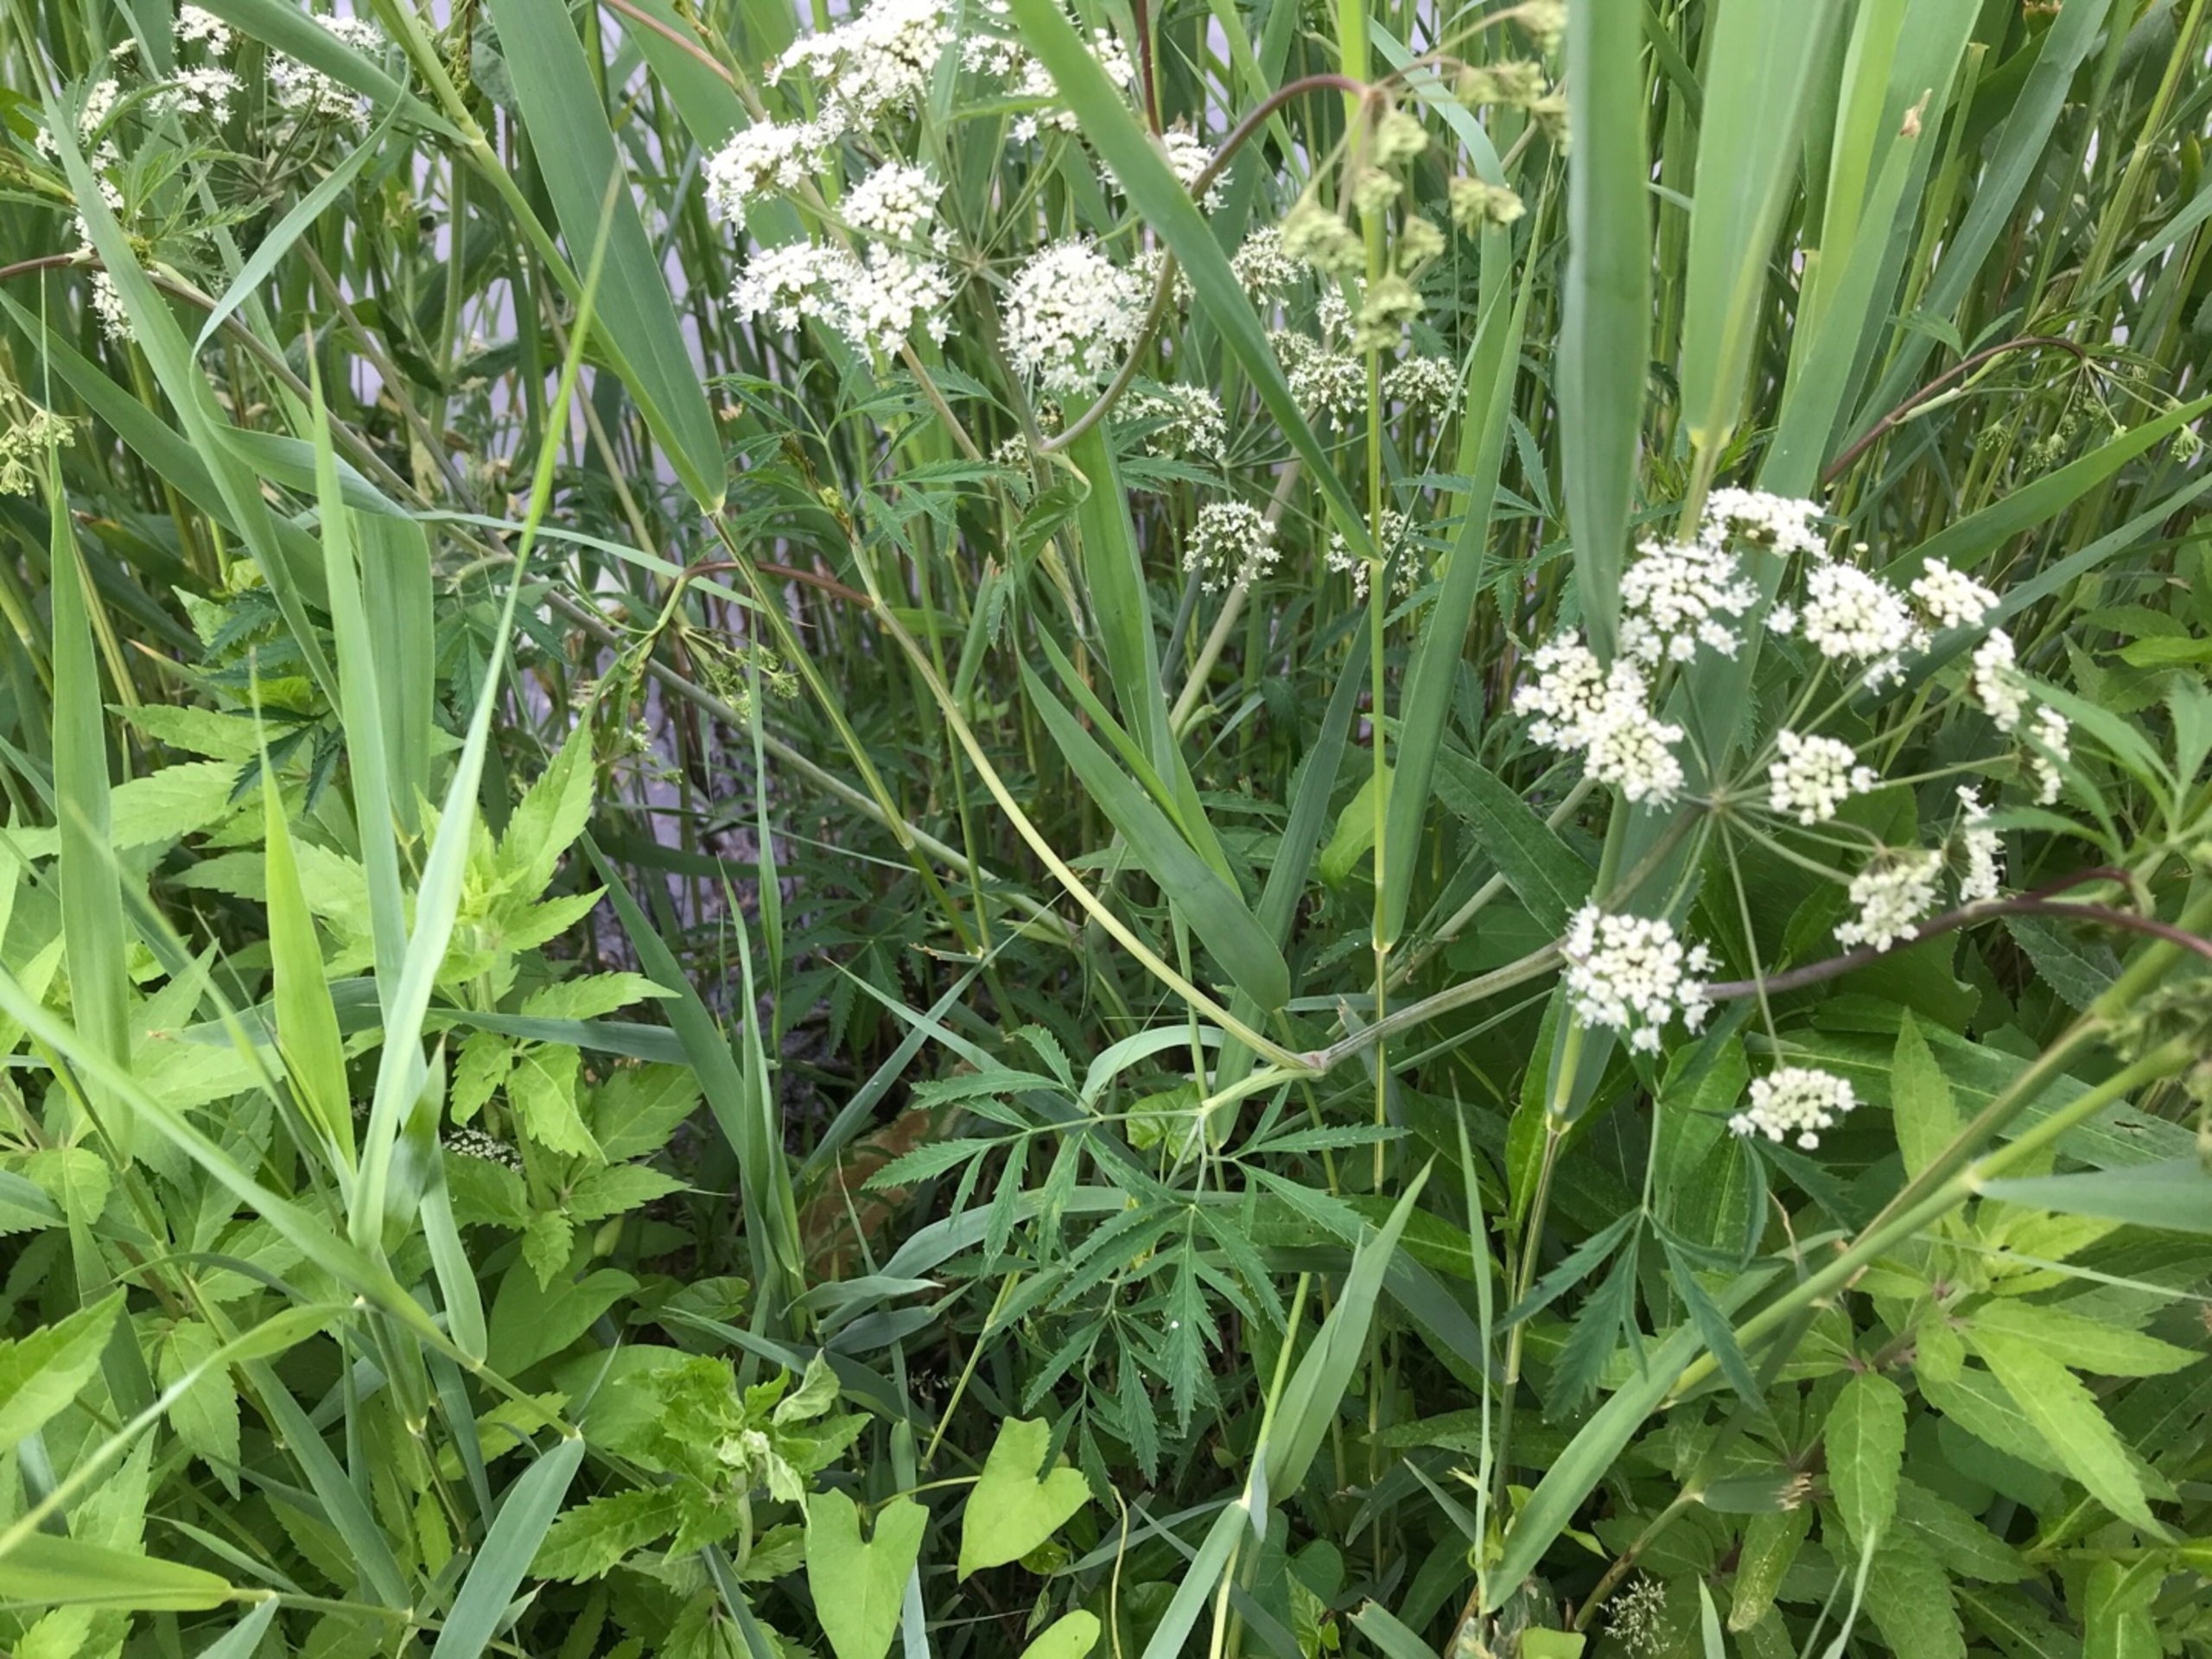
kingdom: Plantae
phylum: Tracheophyta
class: Magnoliopsida
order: Apiales
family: Apiaceae
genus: Cicuta
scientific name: Cicuta virosa
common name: Gifttyde
